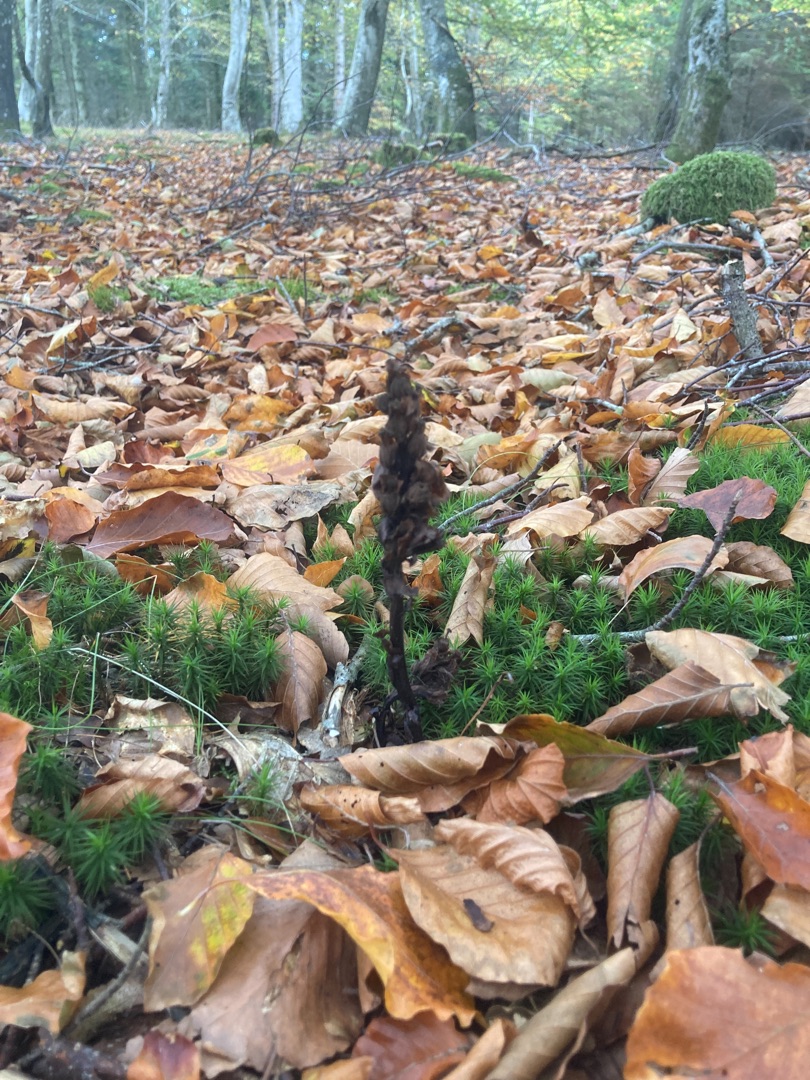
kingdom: Plantae
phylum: Tracheophyta
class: Magnoliopsida
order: Ericales
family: Ericaceae
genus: Hypopitys
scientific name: Hypopitys monotropa
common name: Snylterod
